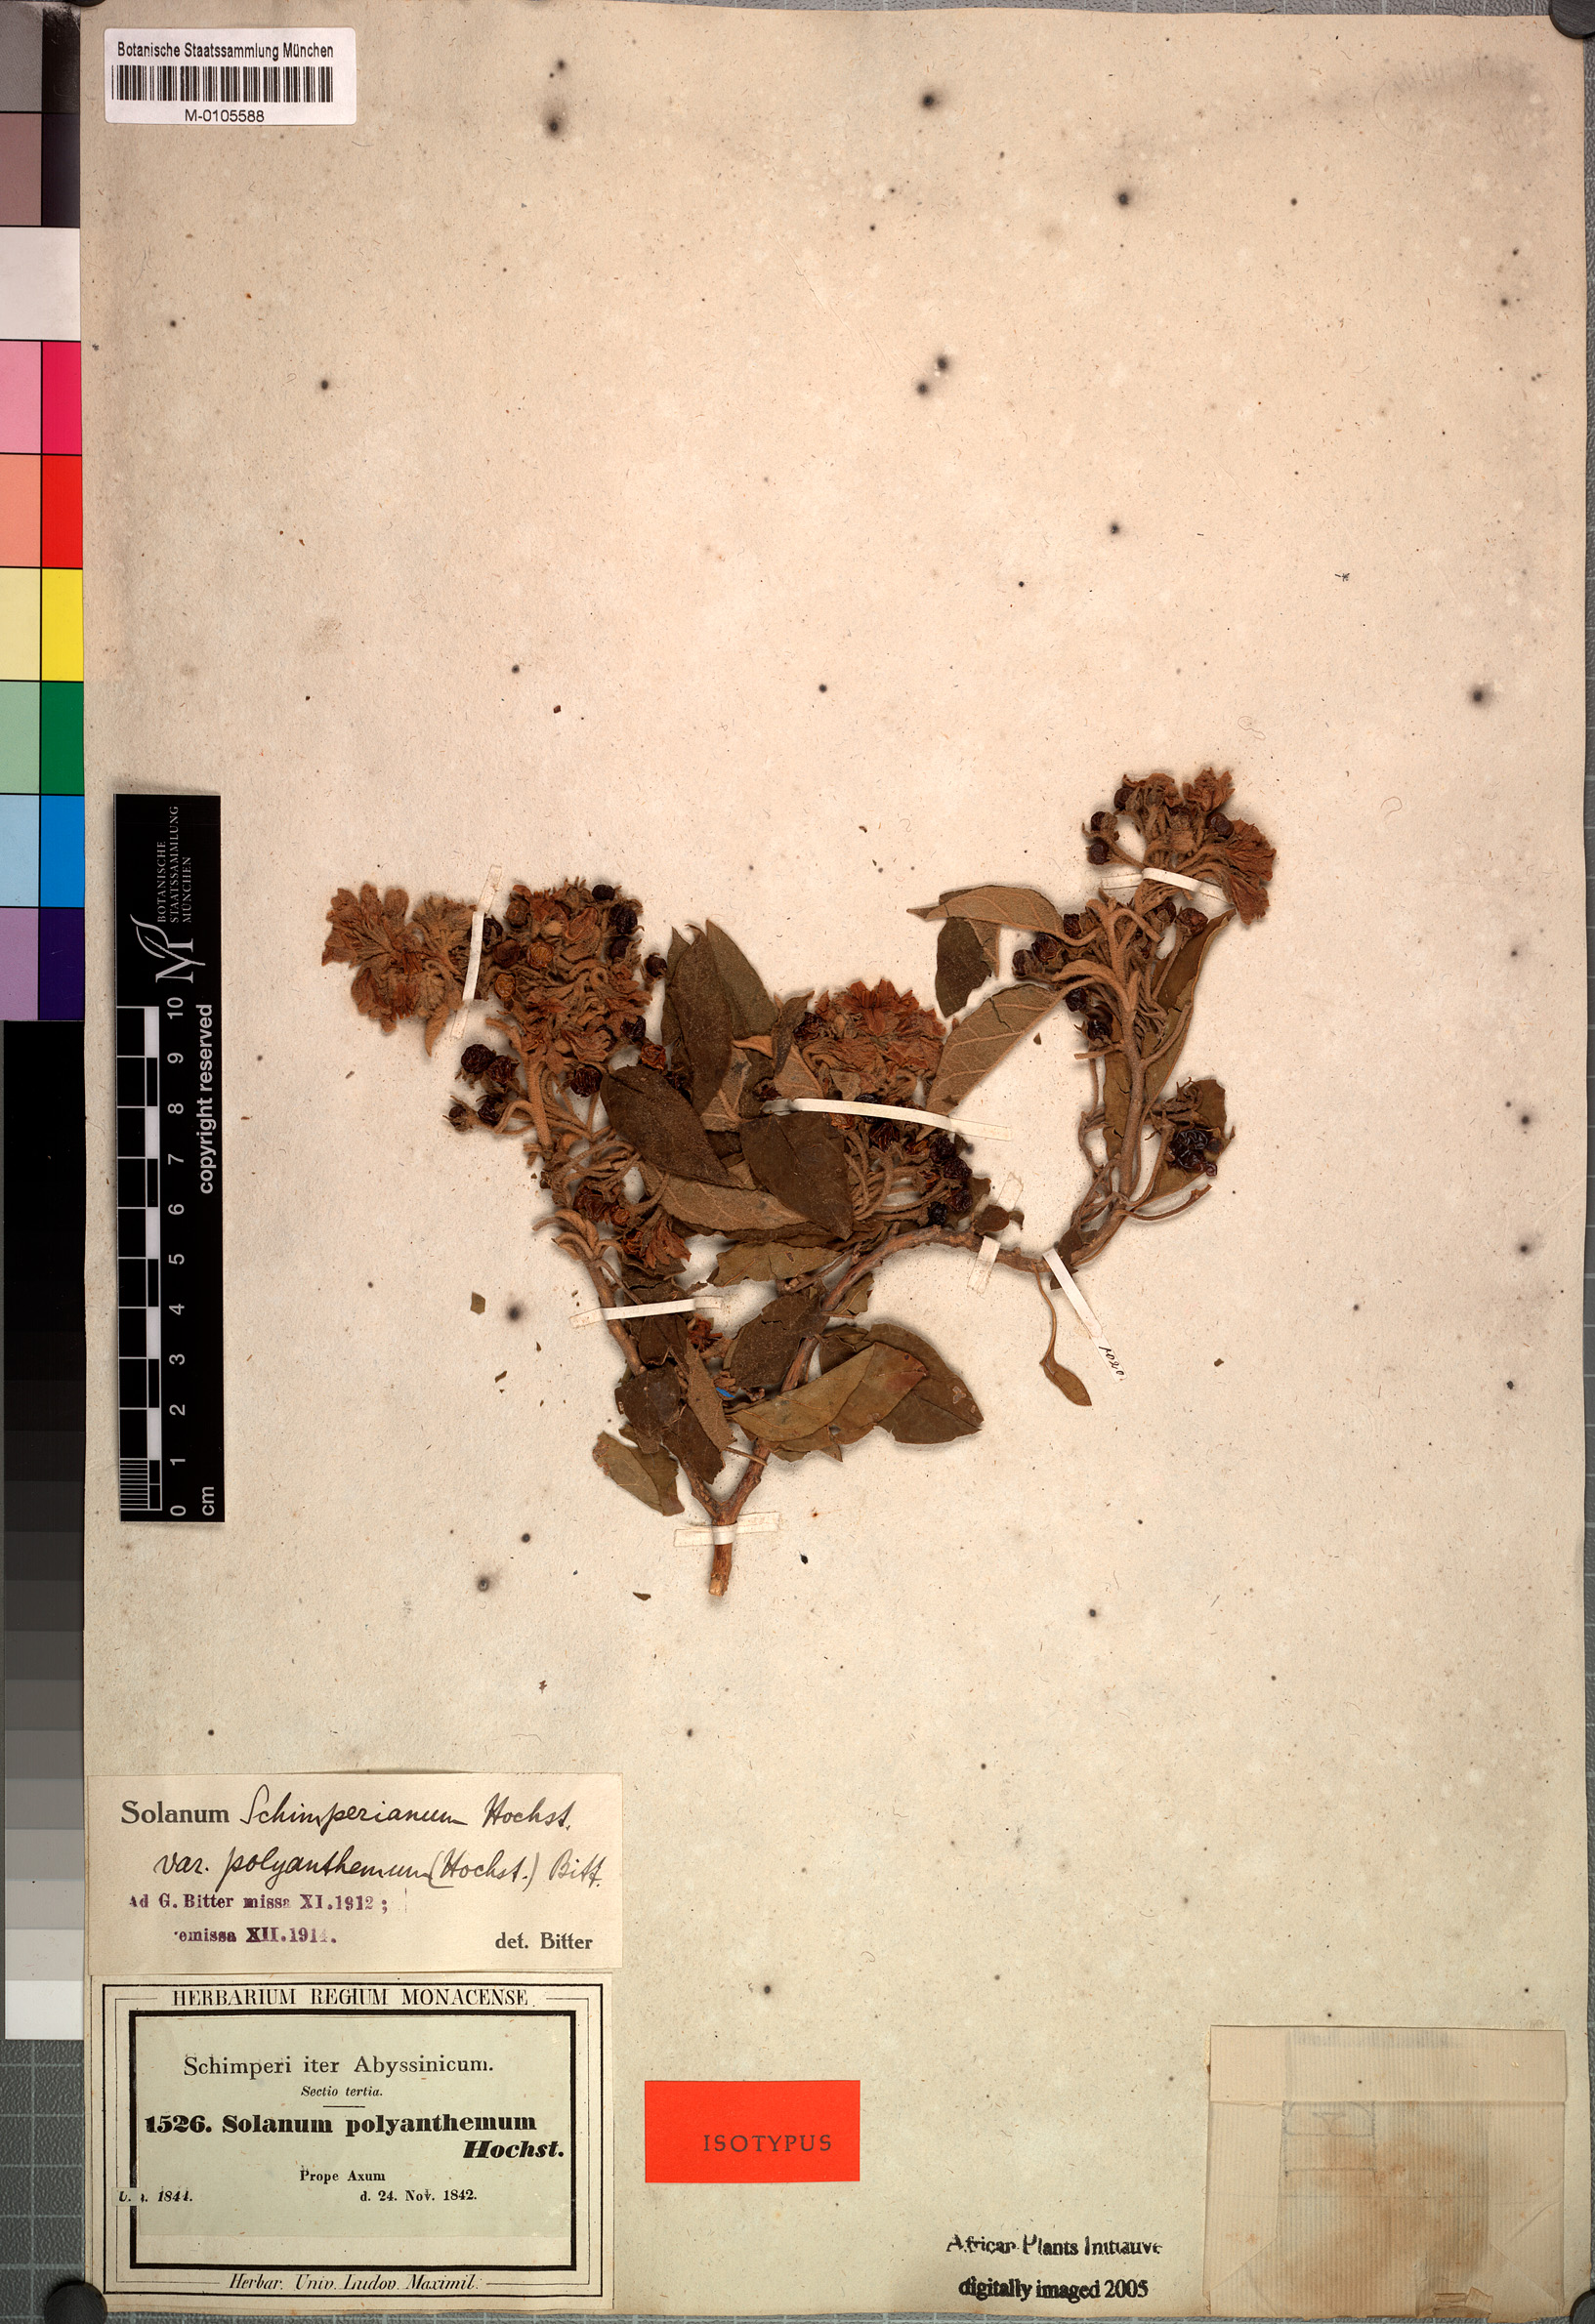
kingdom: Plantae
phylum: Tracheophyta
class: Magnoliopsida
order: Solanales
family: Solanaceae
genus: Solanum
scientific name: Solanum schimperianum
